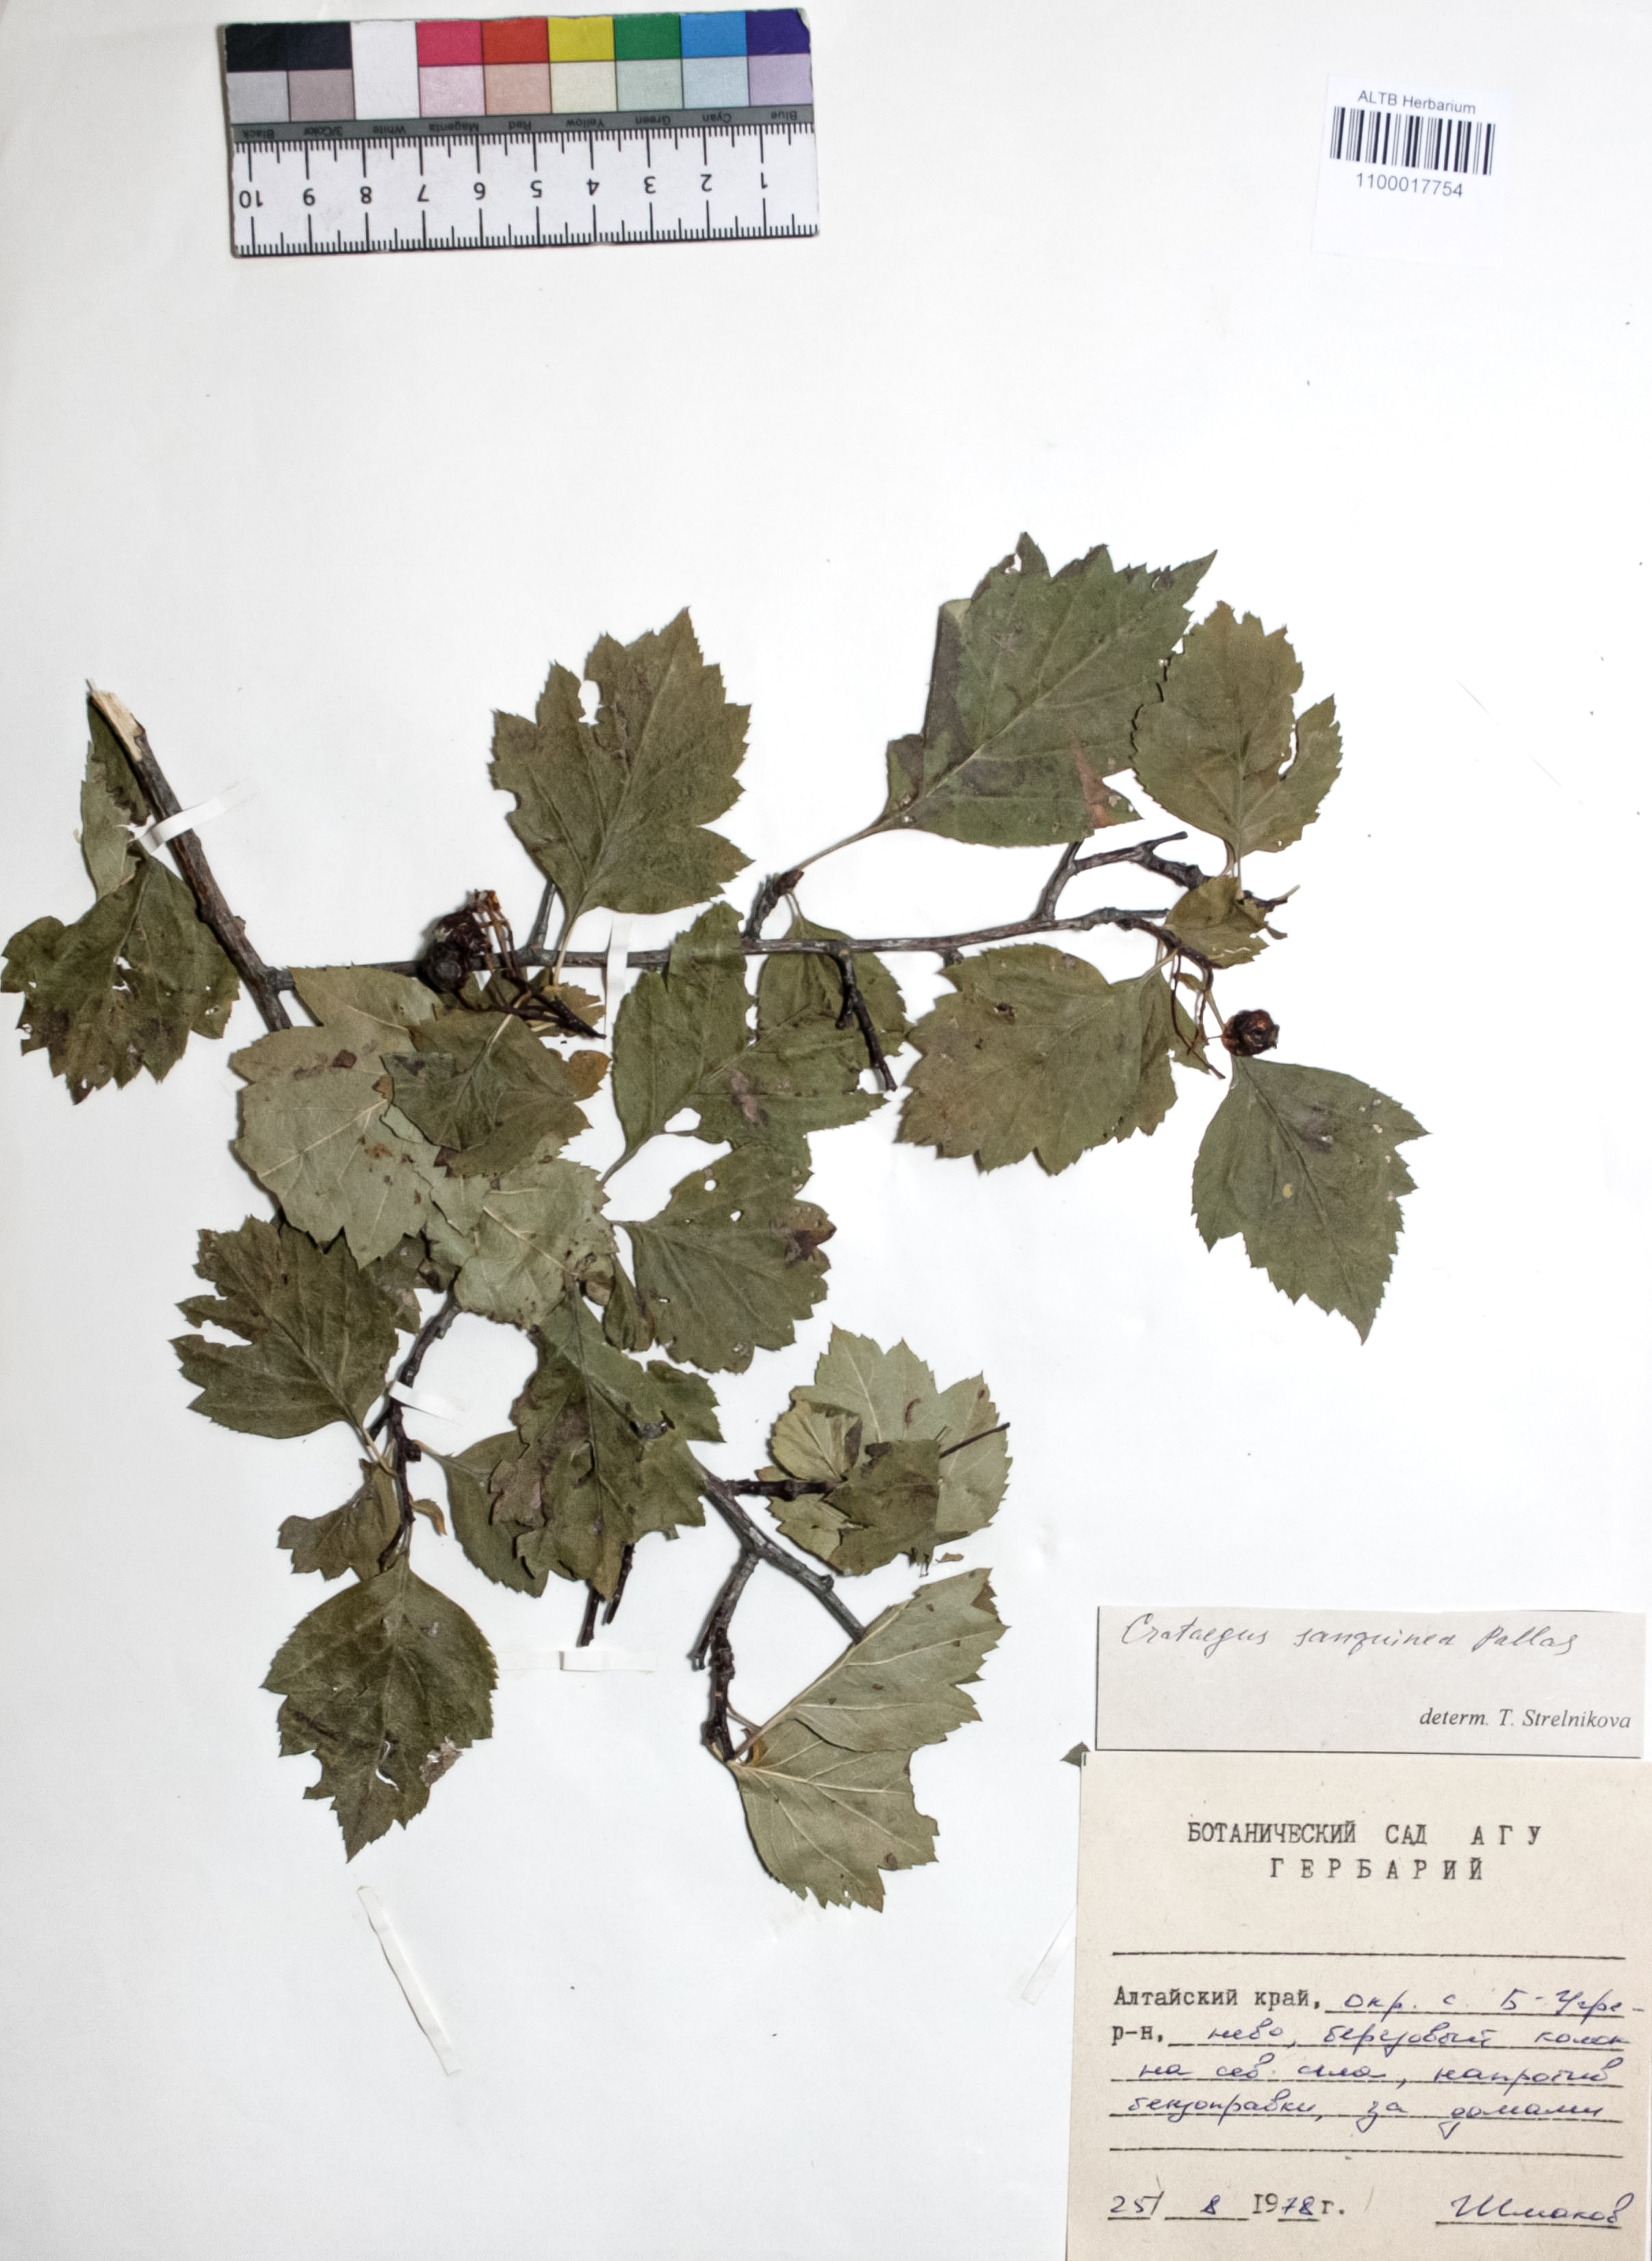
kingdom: Plantae
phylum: Tracheophyta
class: Magnoliopsida
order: Rosales
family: Rosaceae
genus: Crataegus
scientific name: Crataegus sanguinea
